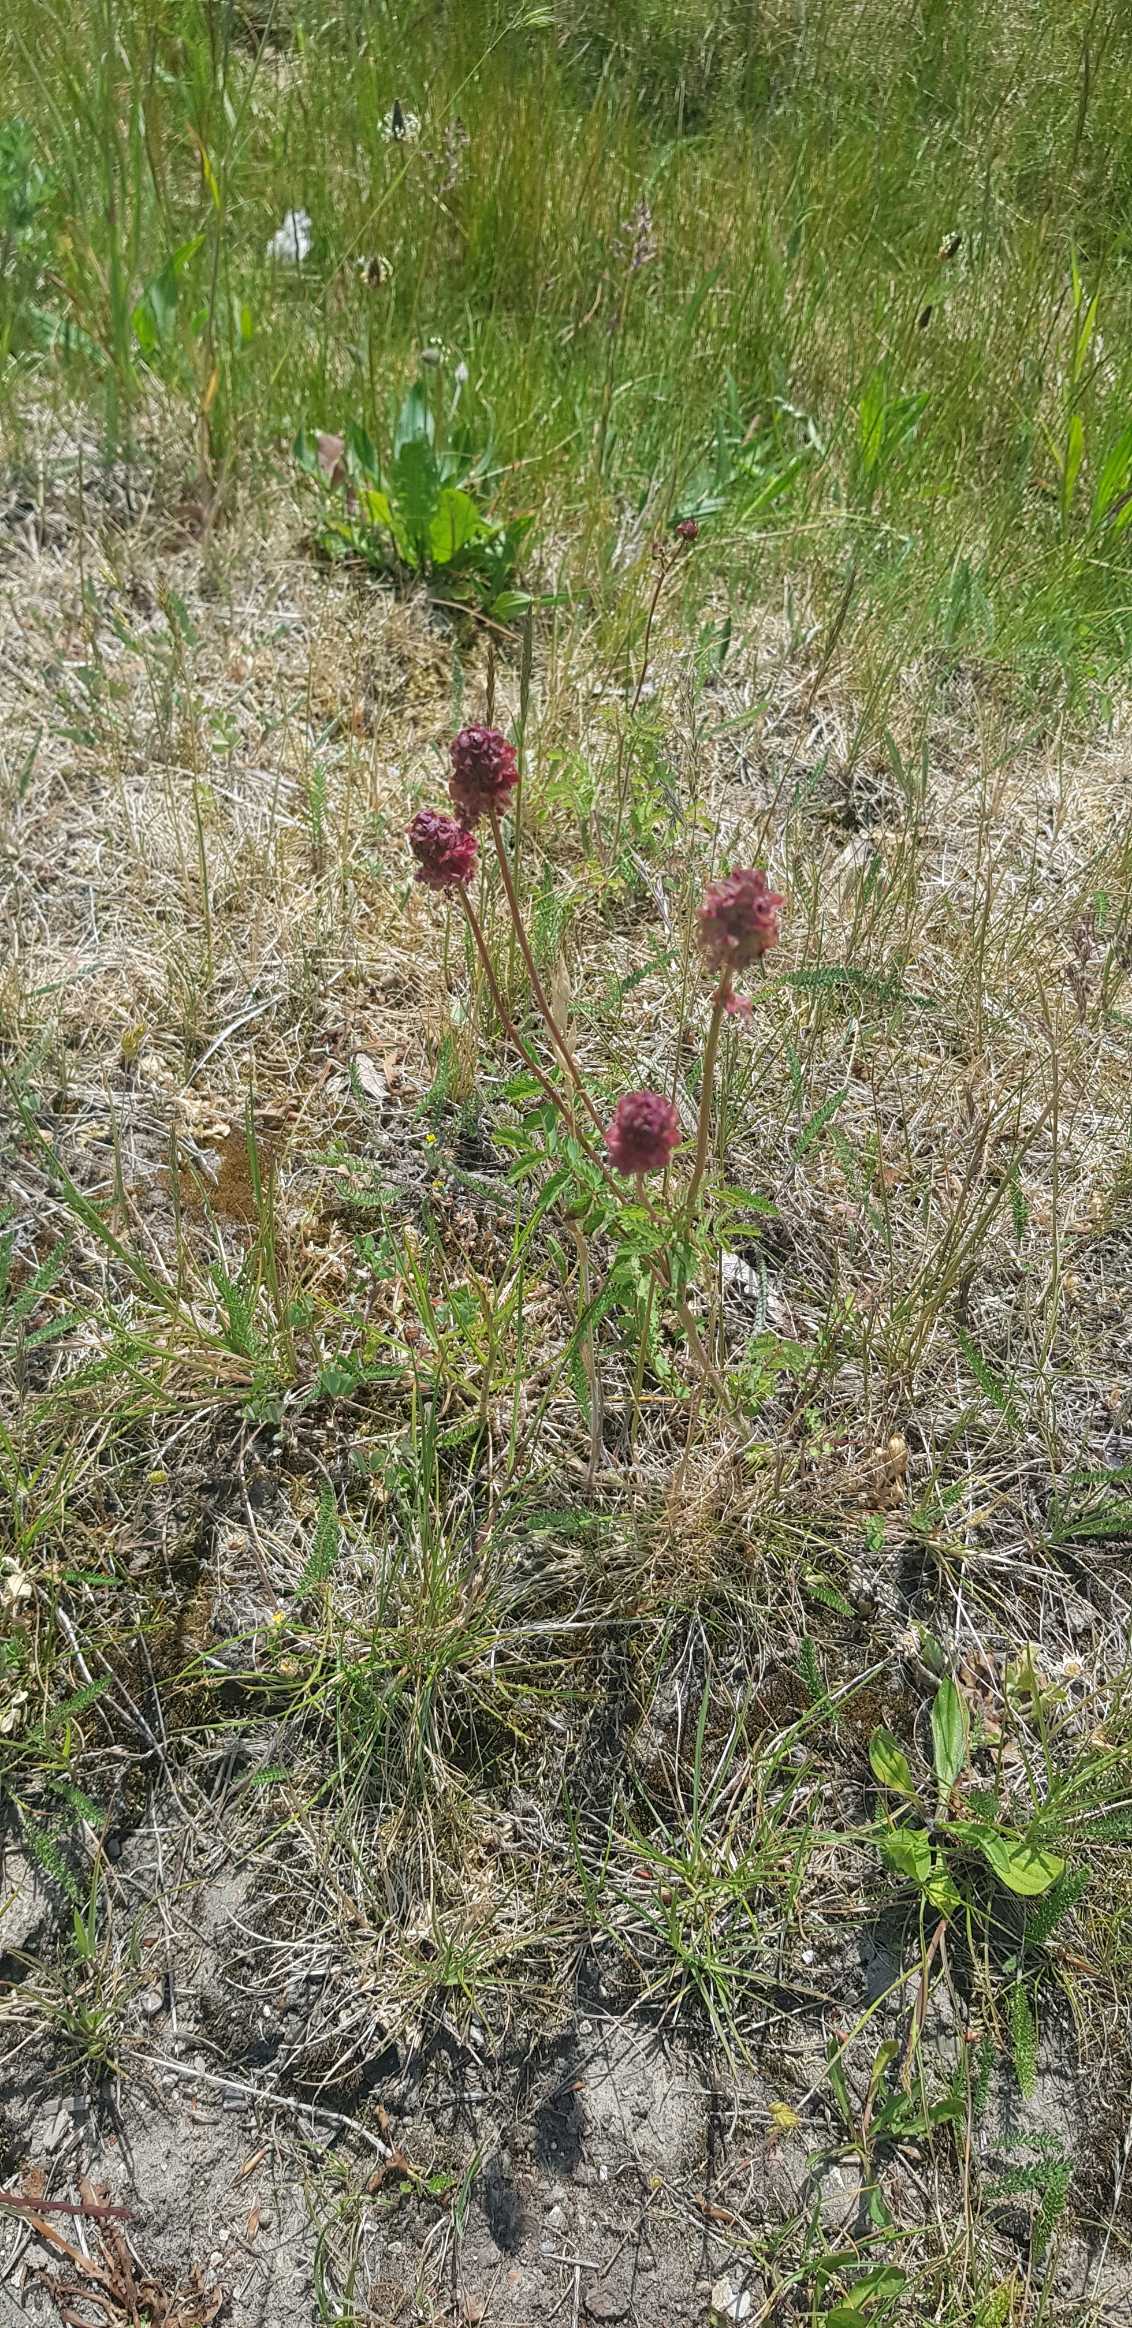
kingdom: Plantae
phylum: Tracheophyta
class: Magnoliopsida
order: Rosales
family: Rosaceae
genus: Poterium
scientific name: Poterium sanguisorba
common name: Bibernelle
